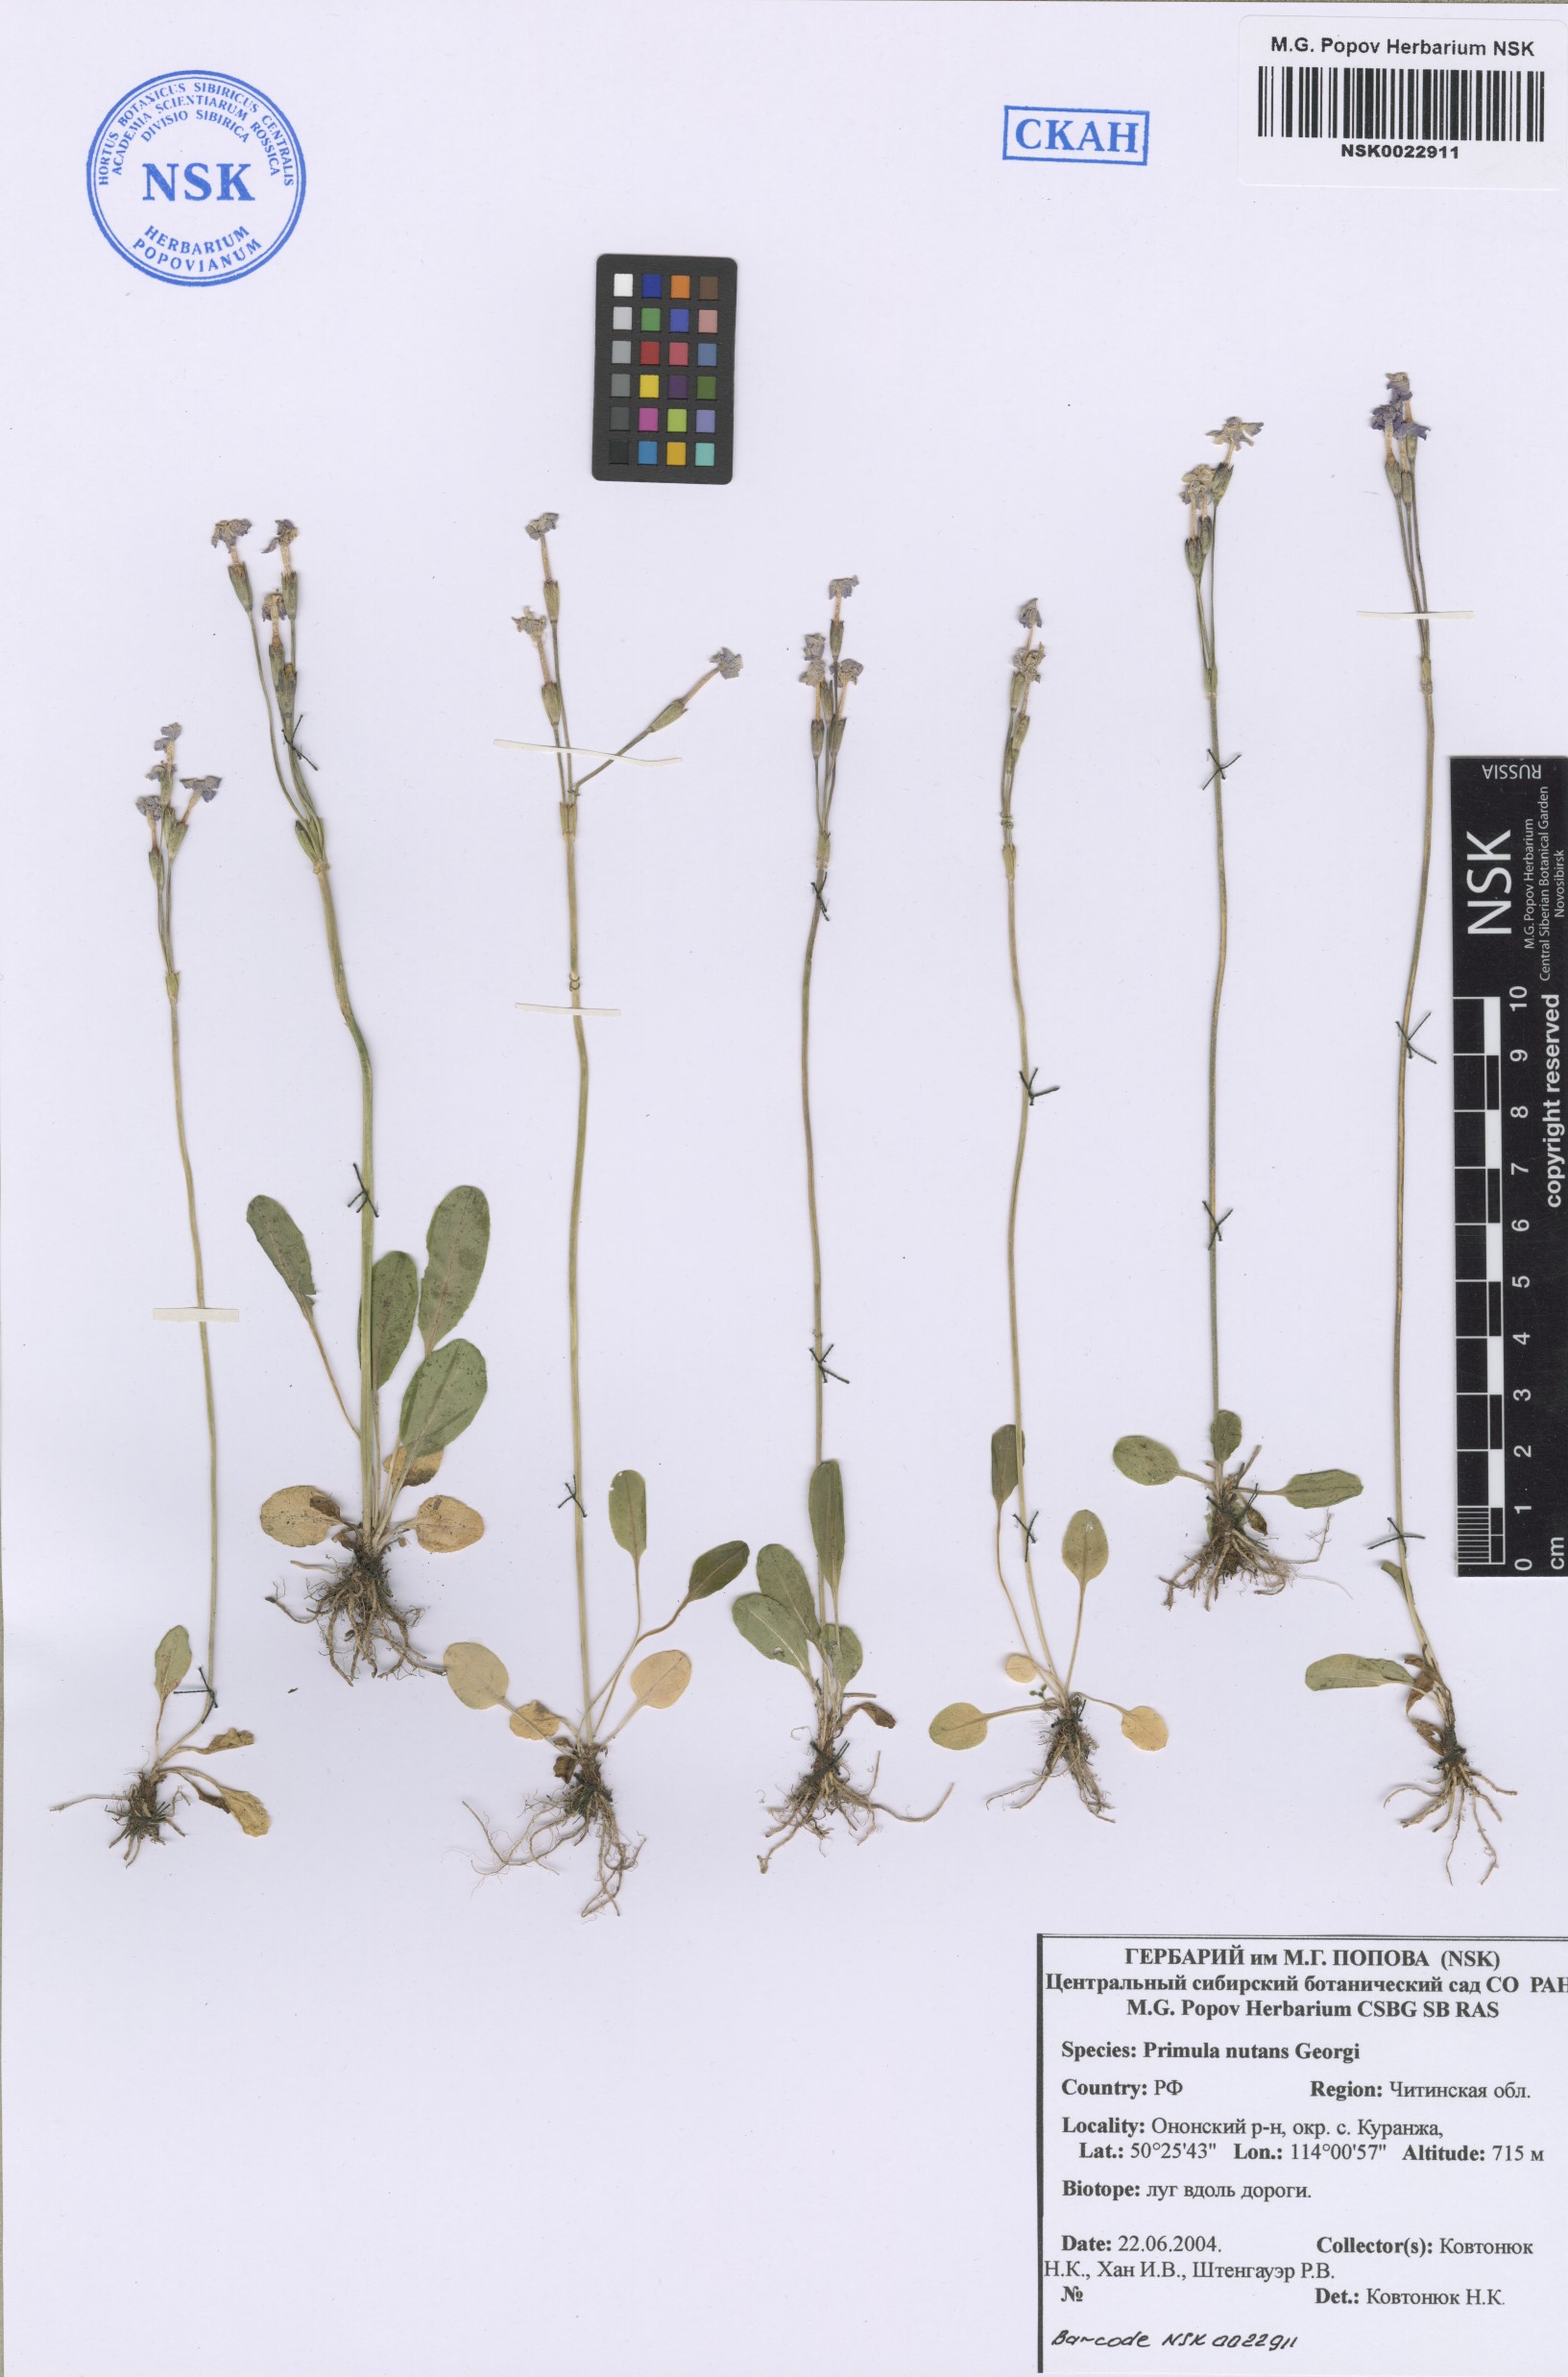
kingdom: Plantae
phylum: Tracheophyta
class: Magnoliopsida
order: Ericales
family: Primulaceae
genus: Primula
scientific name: Primula nutans
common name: Siberian primrose
